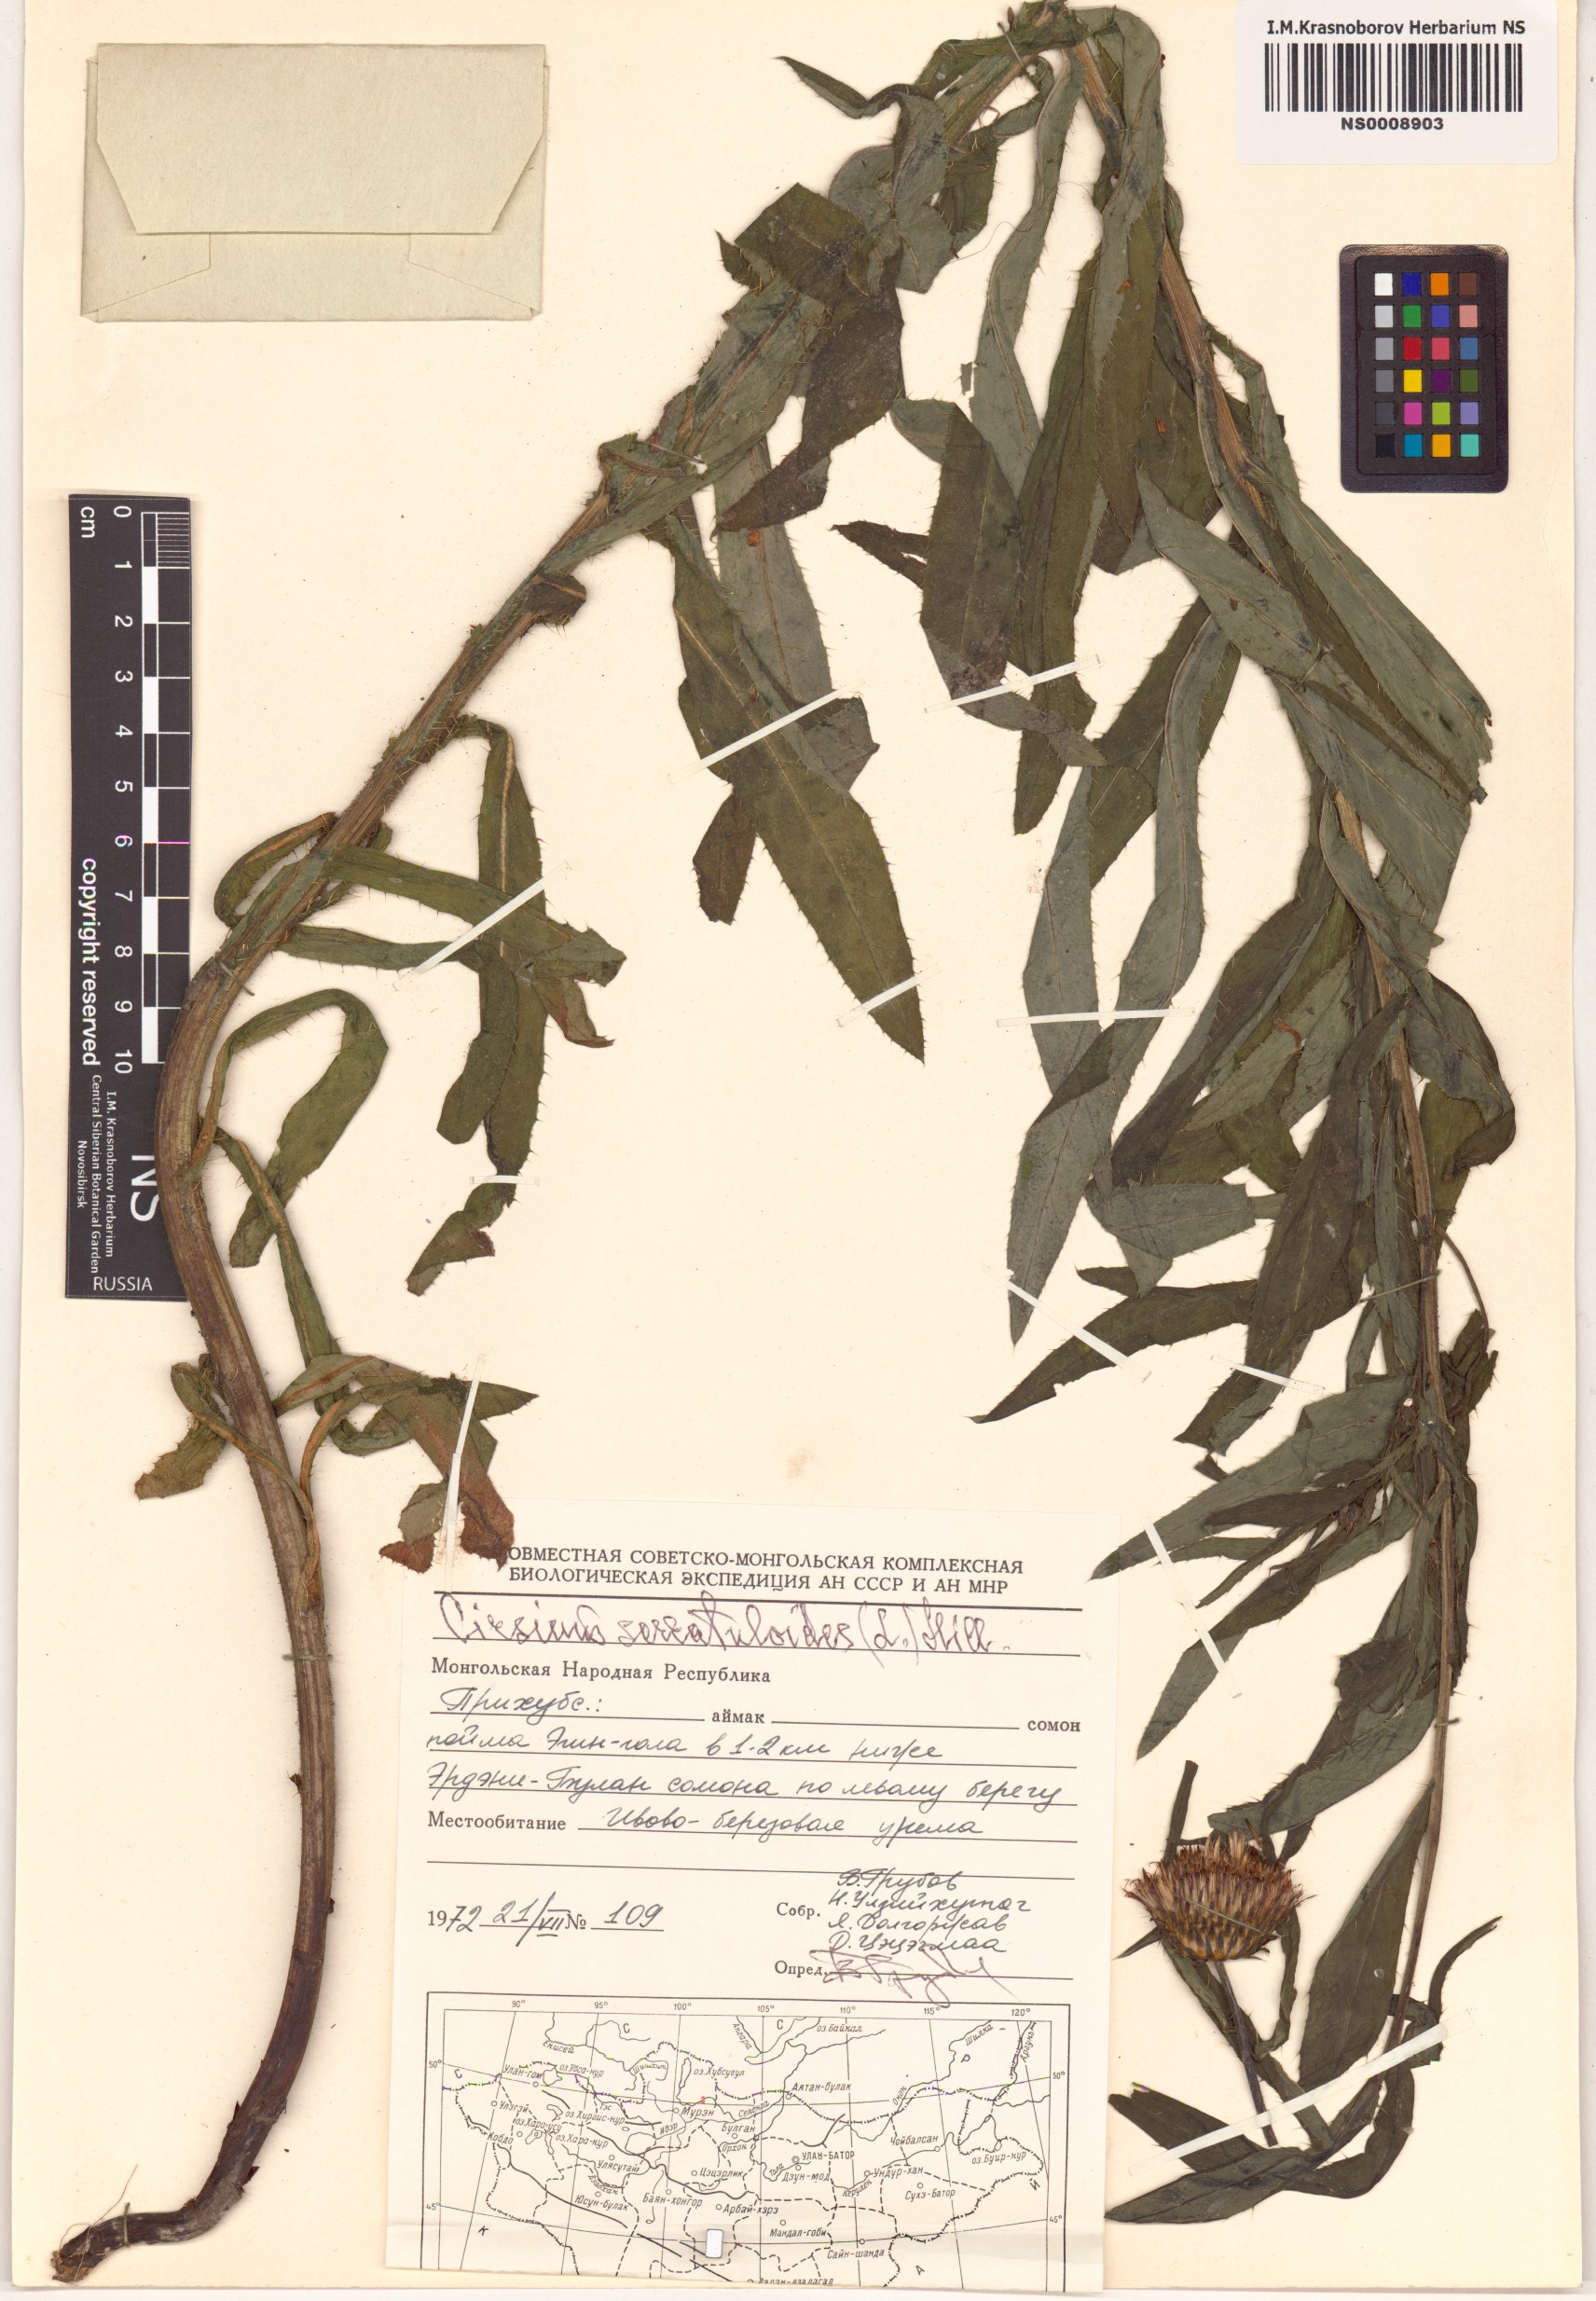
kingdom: Plantae
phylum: Tracheophyta
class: Magnoliopsida
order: Asterales
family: Asteraceae
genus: Cirsium
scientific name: Cirsium serratuloides
